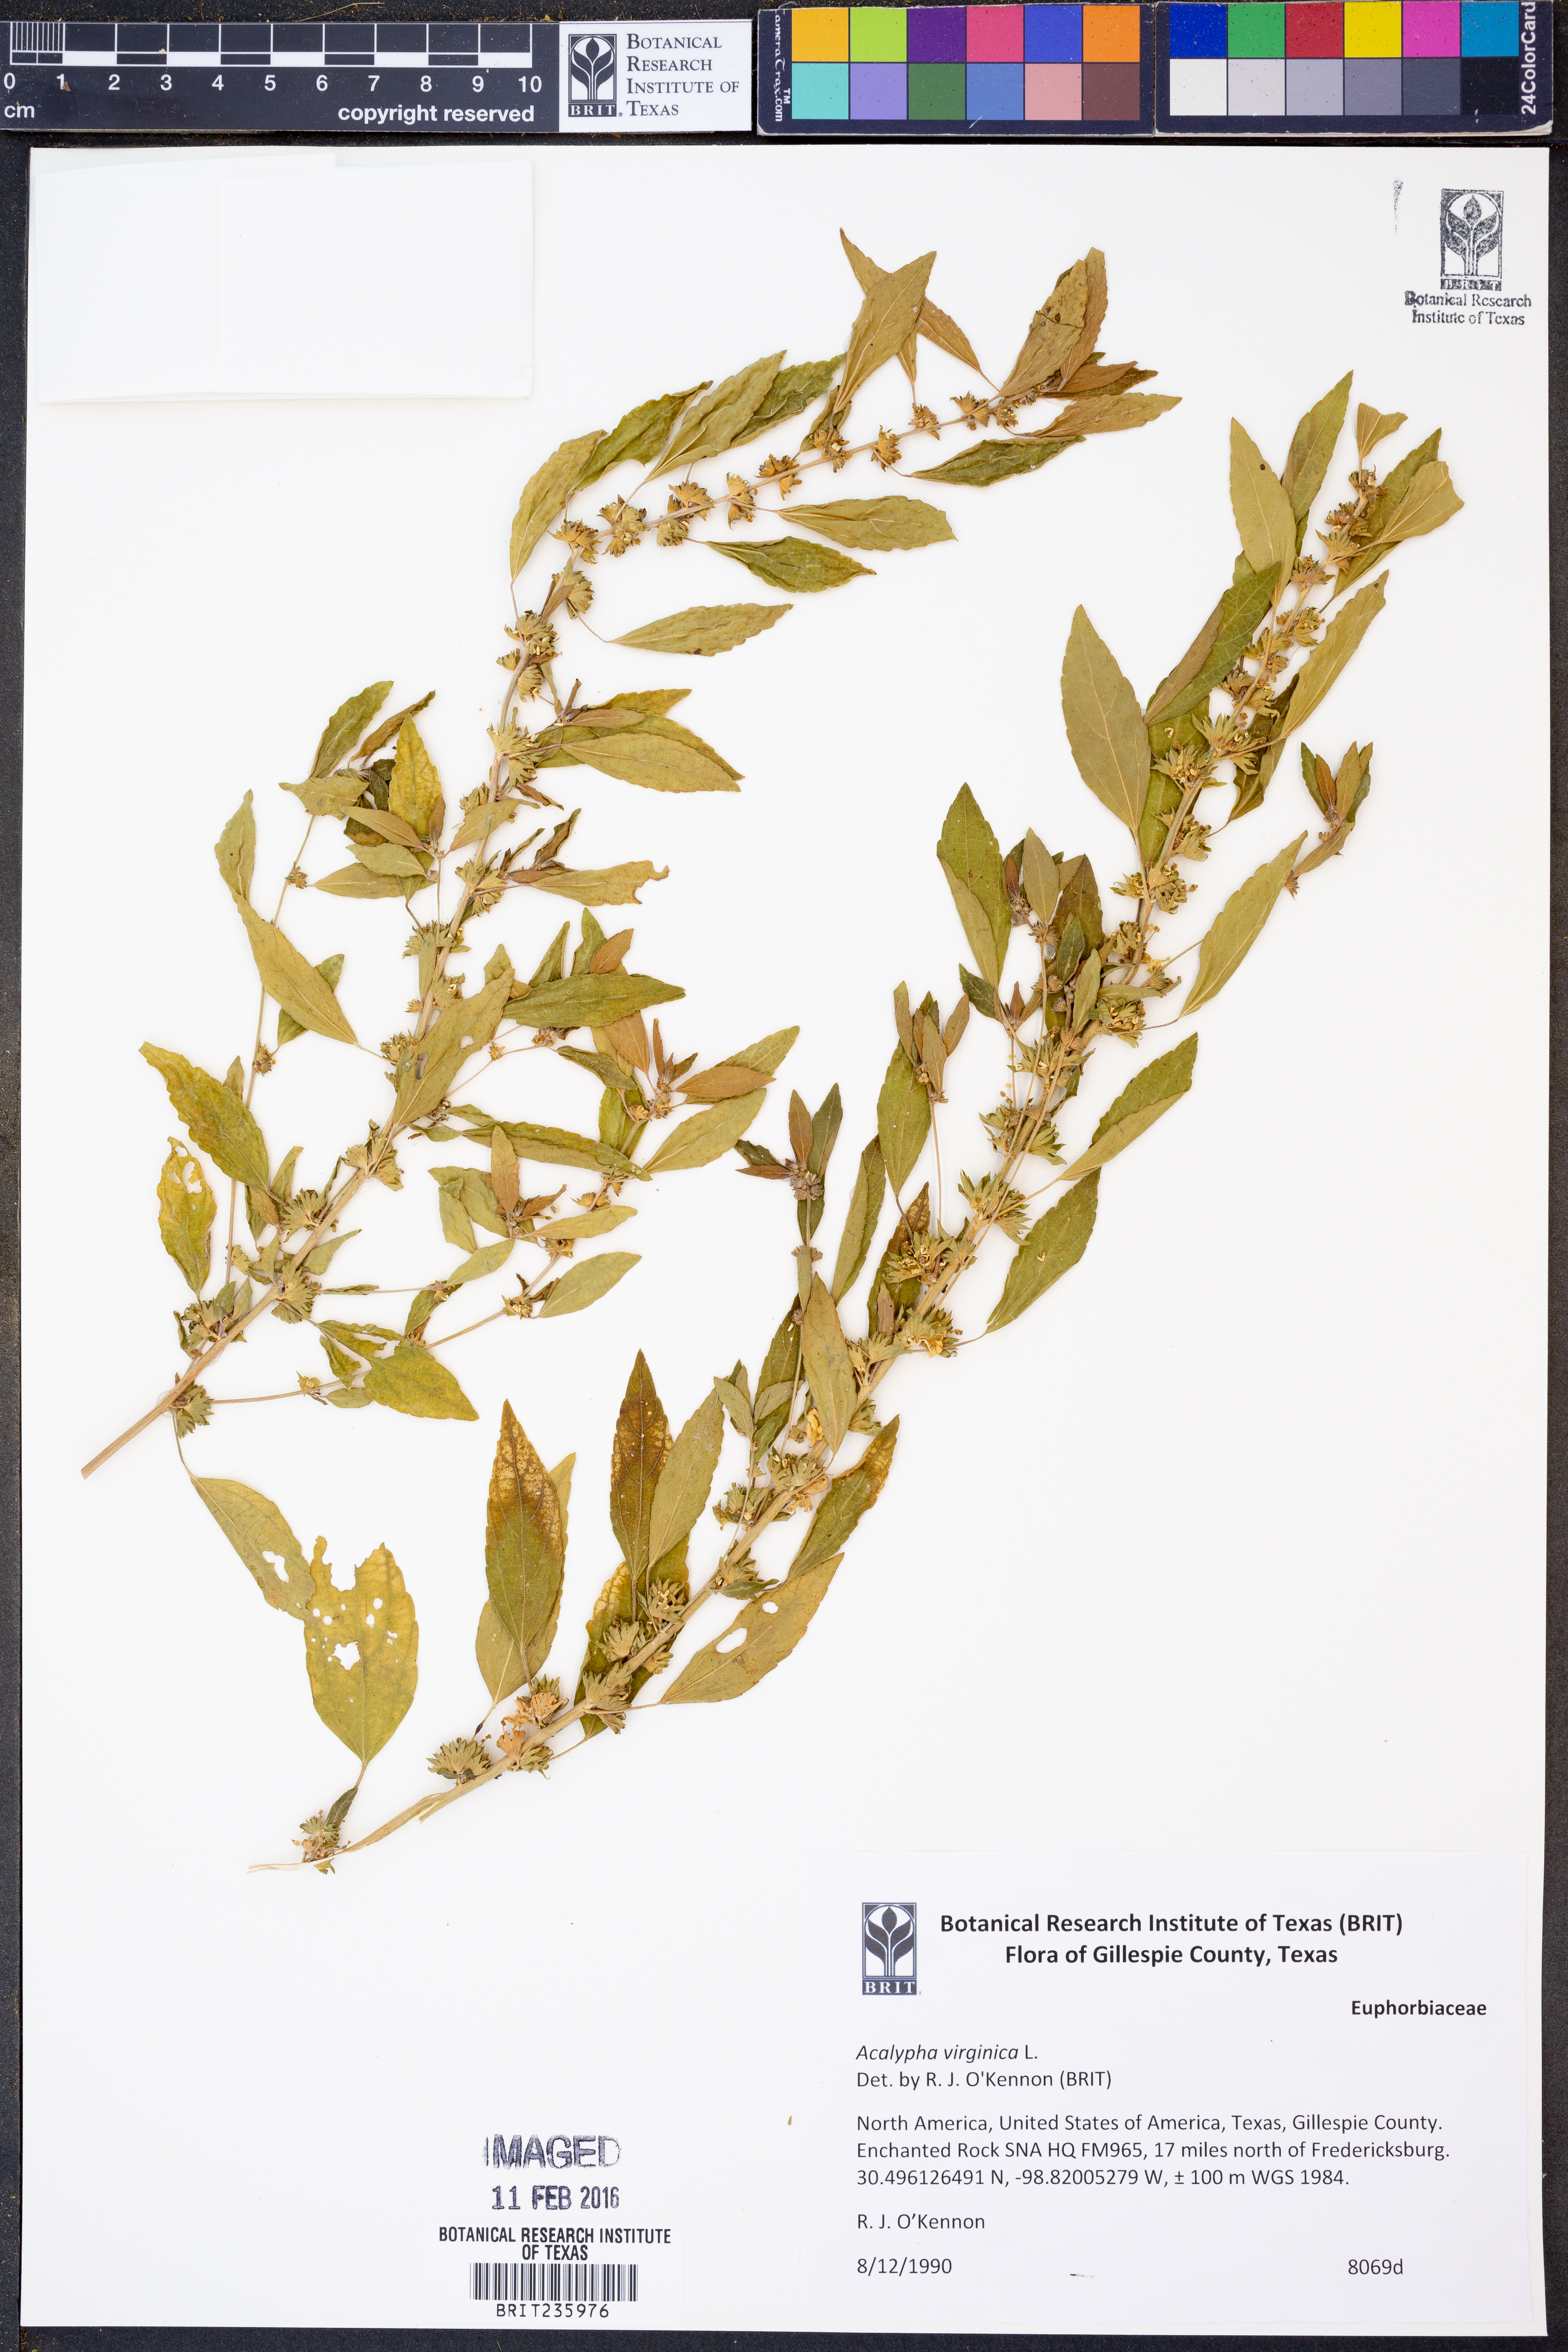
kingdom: Plantae
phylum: Tracheophyta
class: Magnoliopsida
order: Malpighiales
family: Euphorbiaceae
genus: Acalypha
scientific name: Acalypha virginica
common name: Virginia copperleaf
